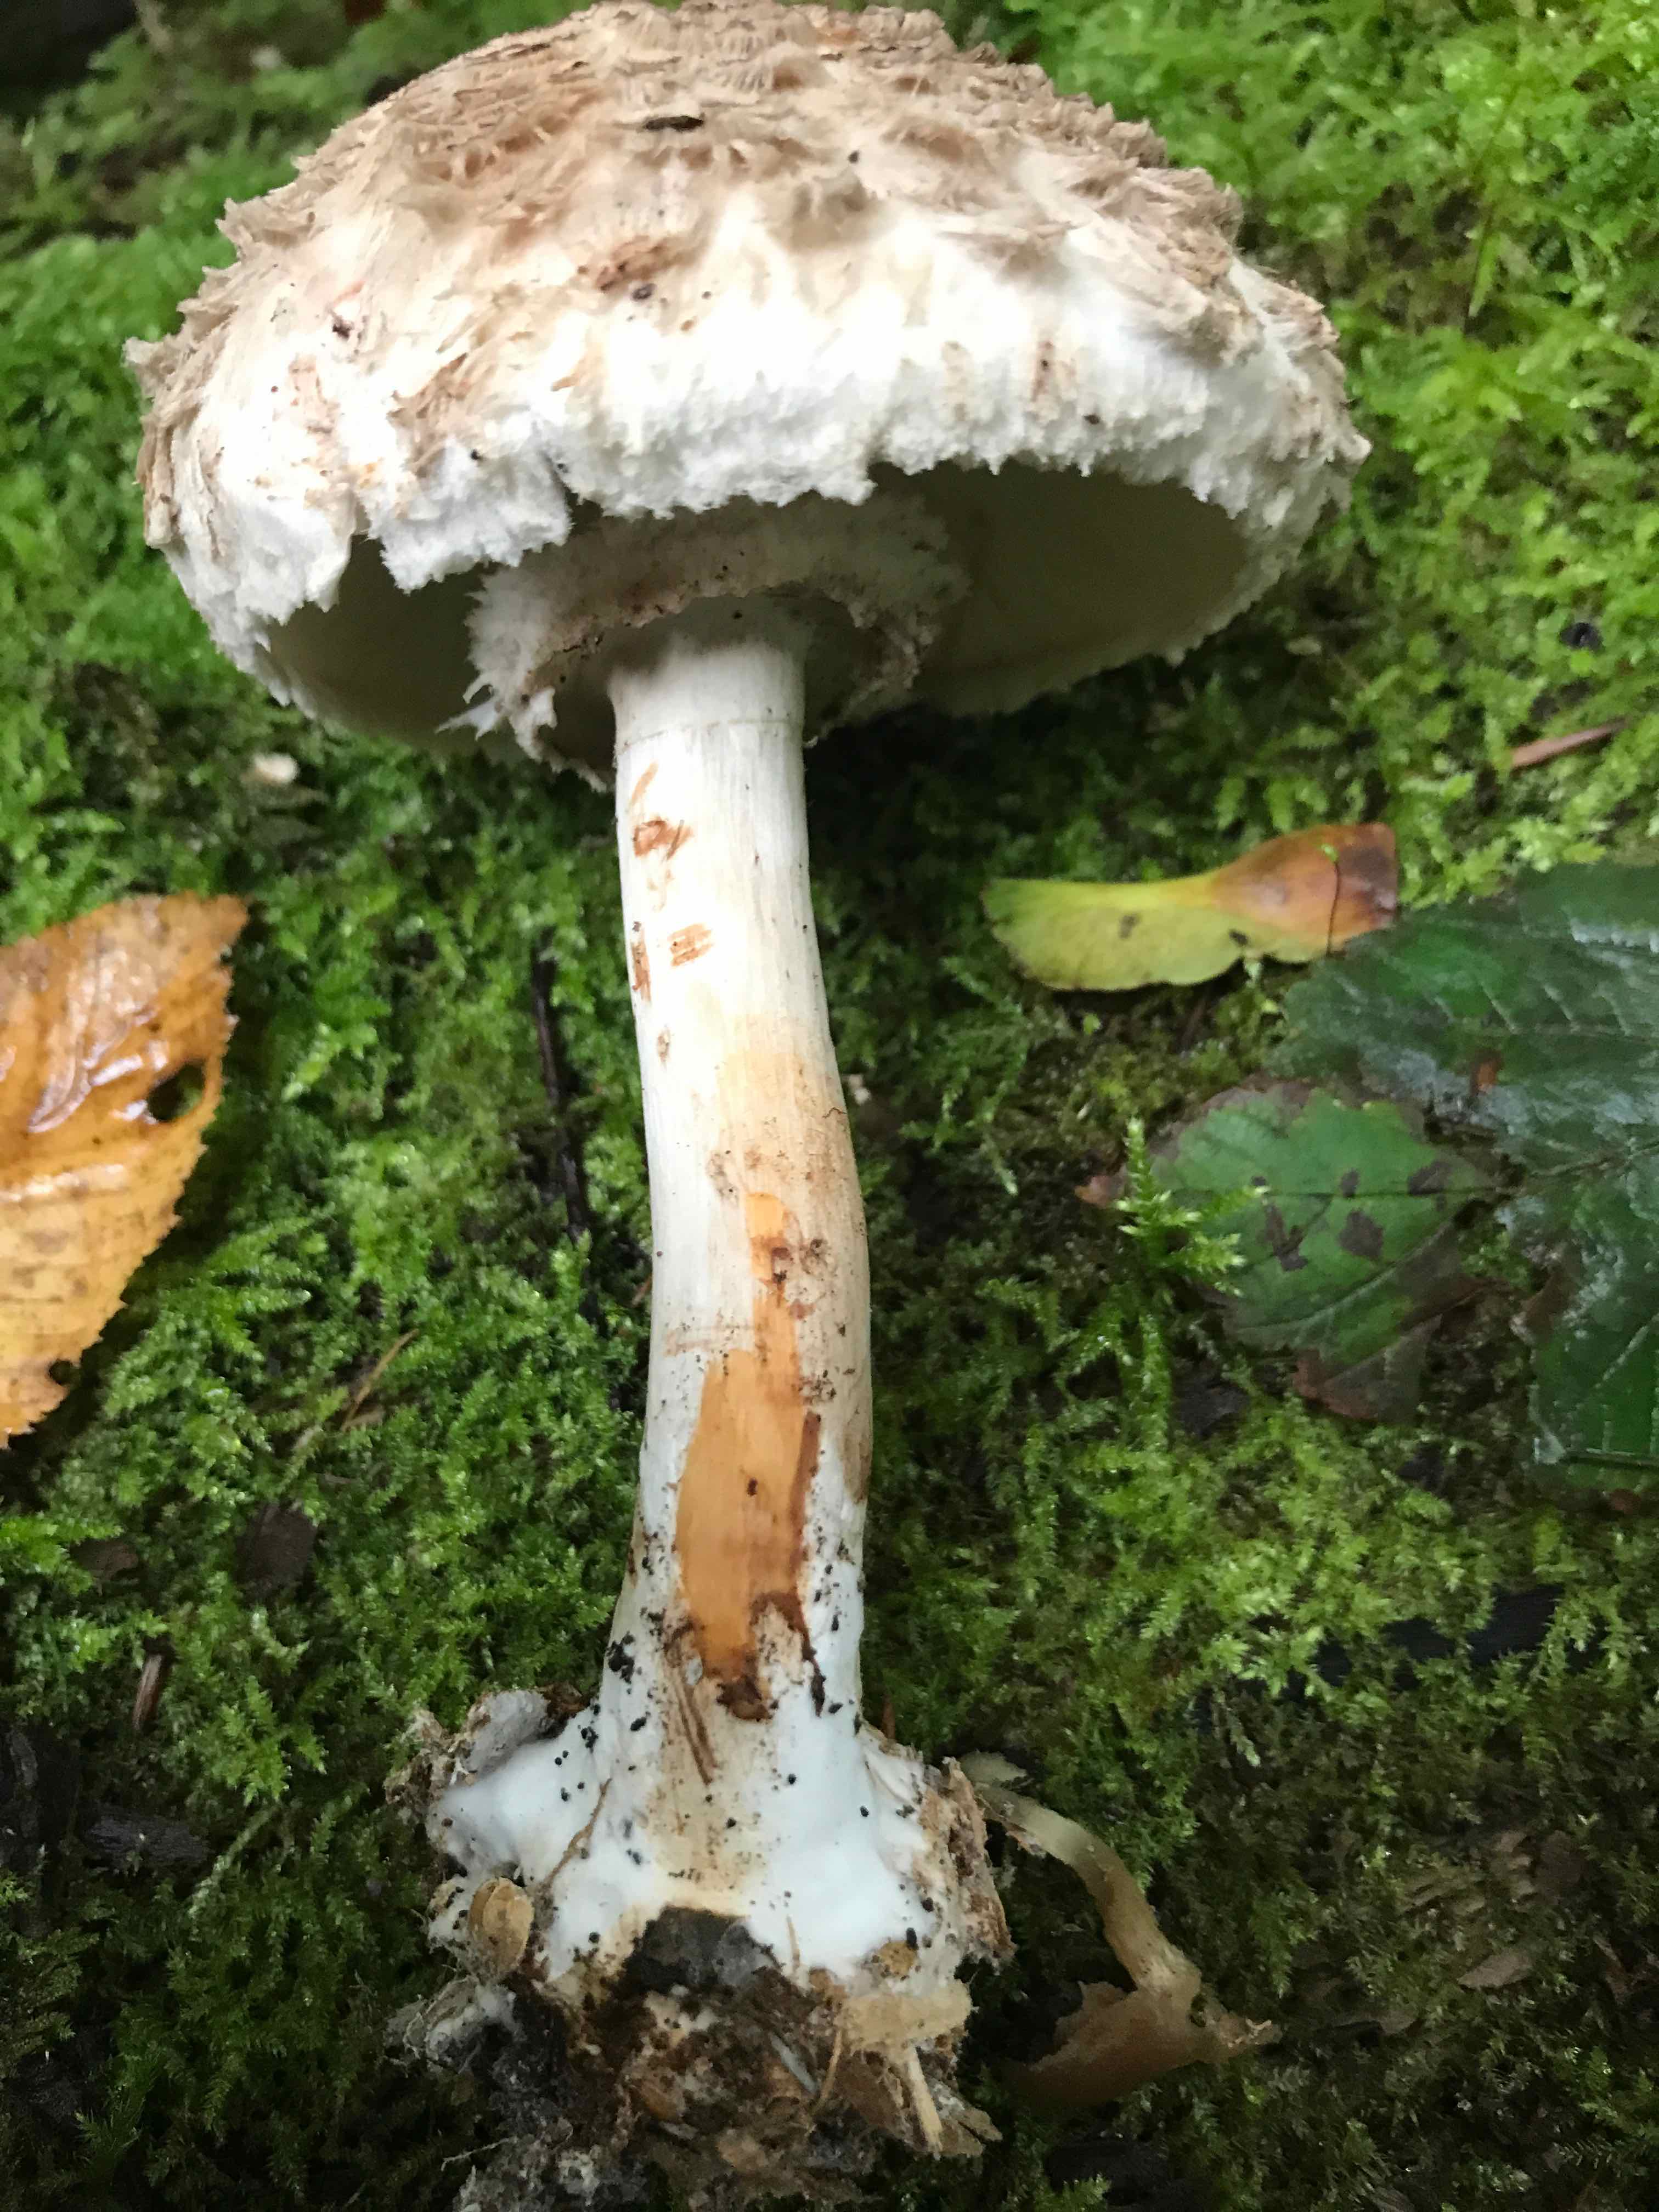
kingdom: Fungi
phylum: Basidiomycota
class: Agaricomycetes
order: Agaricales
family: Agaricaceae
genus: Chlorophyllum
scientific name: Chlorophyllum olivieri
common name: almindelig rabarberhat
